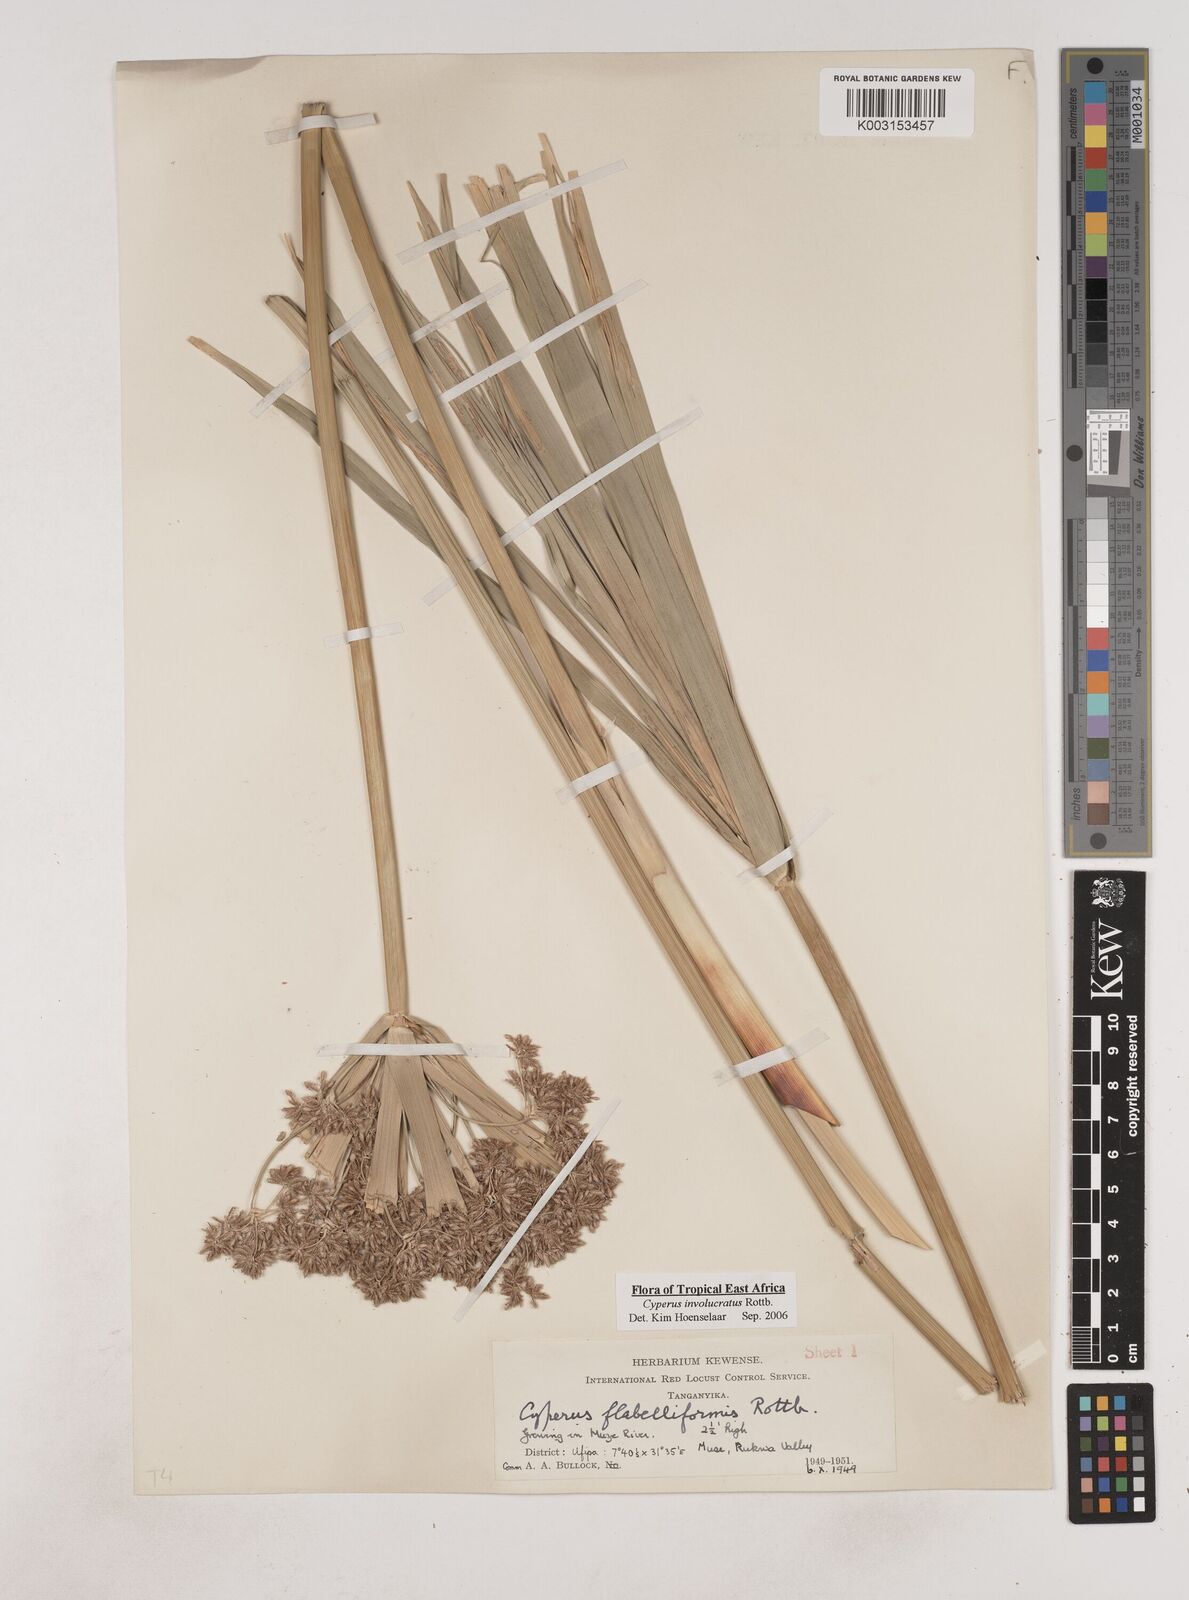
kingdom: Plantae
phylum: Tracheophyta
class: Liliopsida
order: Poales
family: Cyperaceae
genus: Cyperus
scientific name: Cyperus alternifolius
